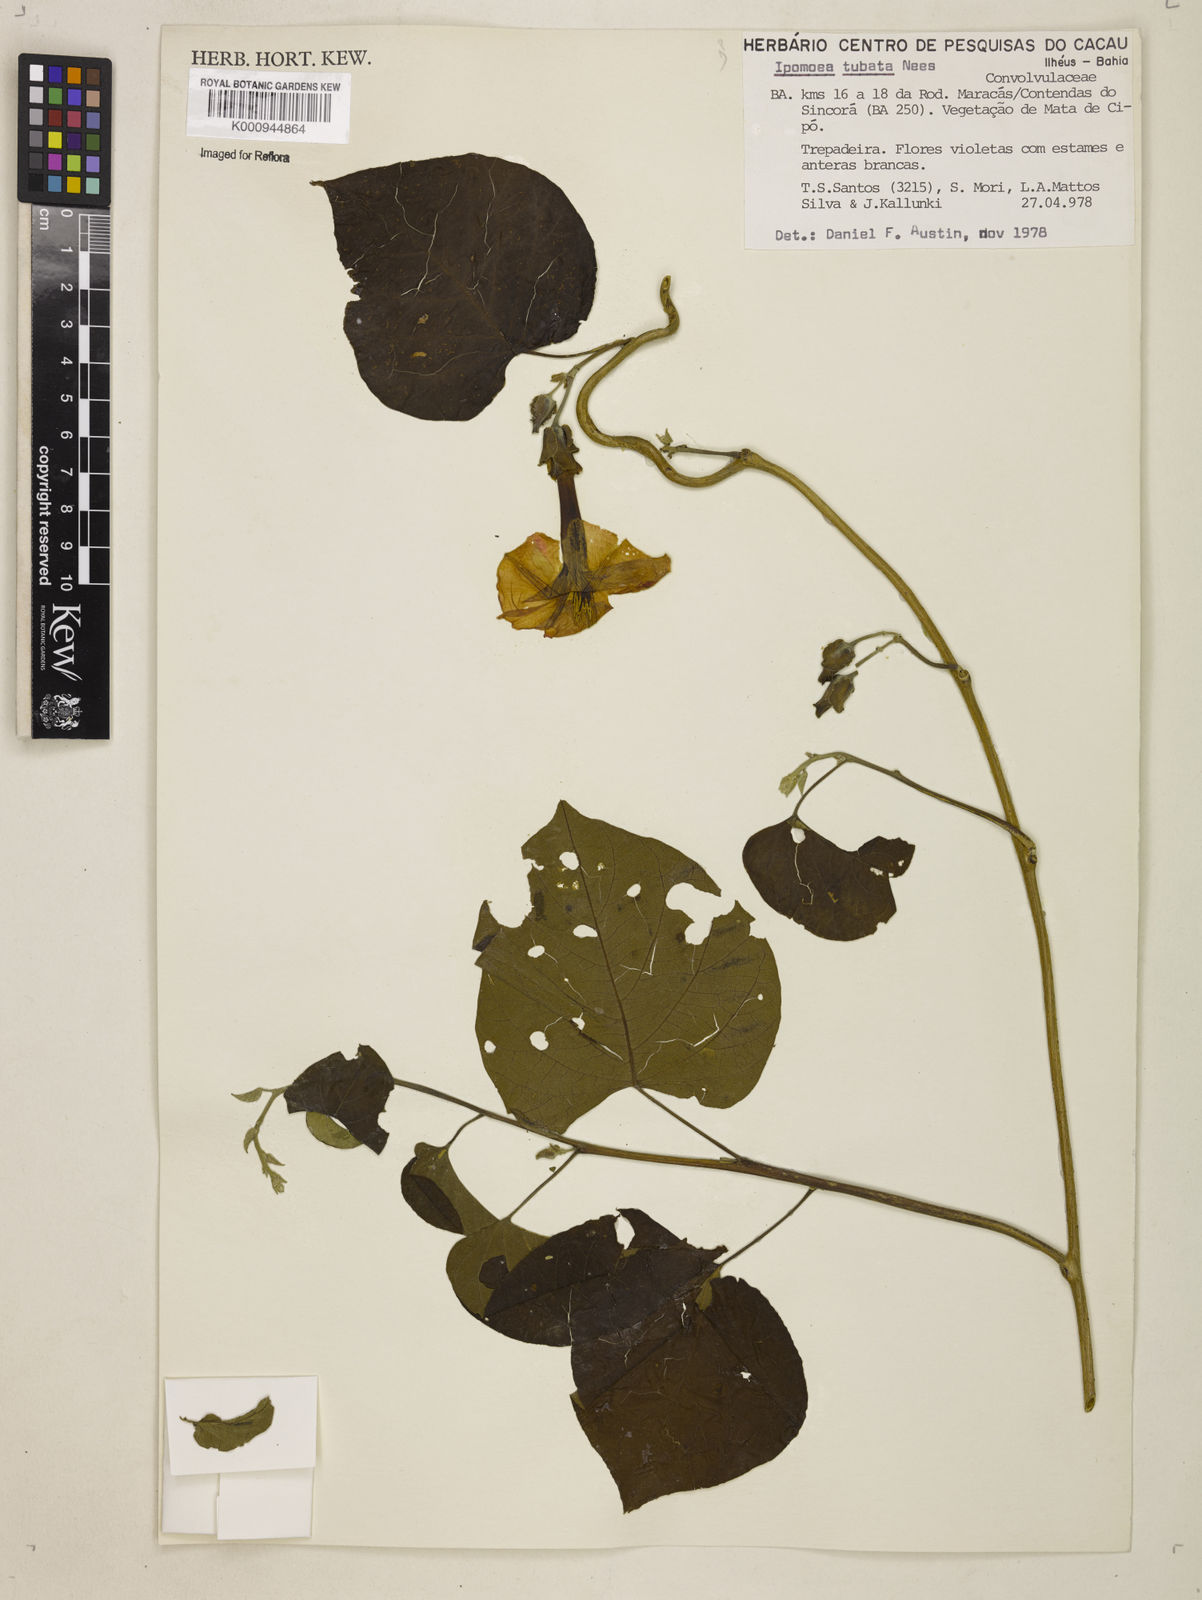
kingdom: Plantae
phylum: Tracheophyta
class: Magnoliopsida
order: Solanales
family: Convolvulaceae
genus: Ipomoea
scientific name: Ipomoea sidifolia
